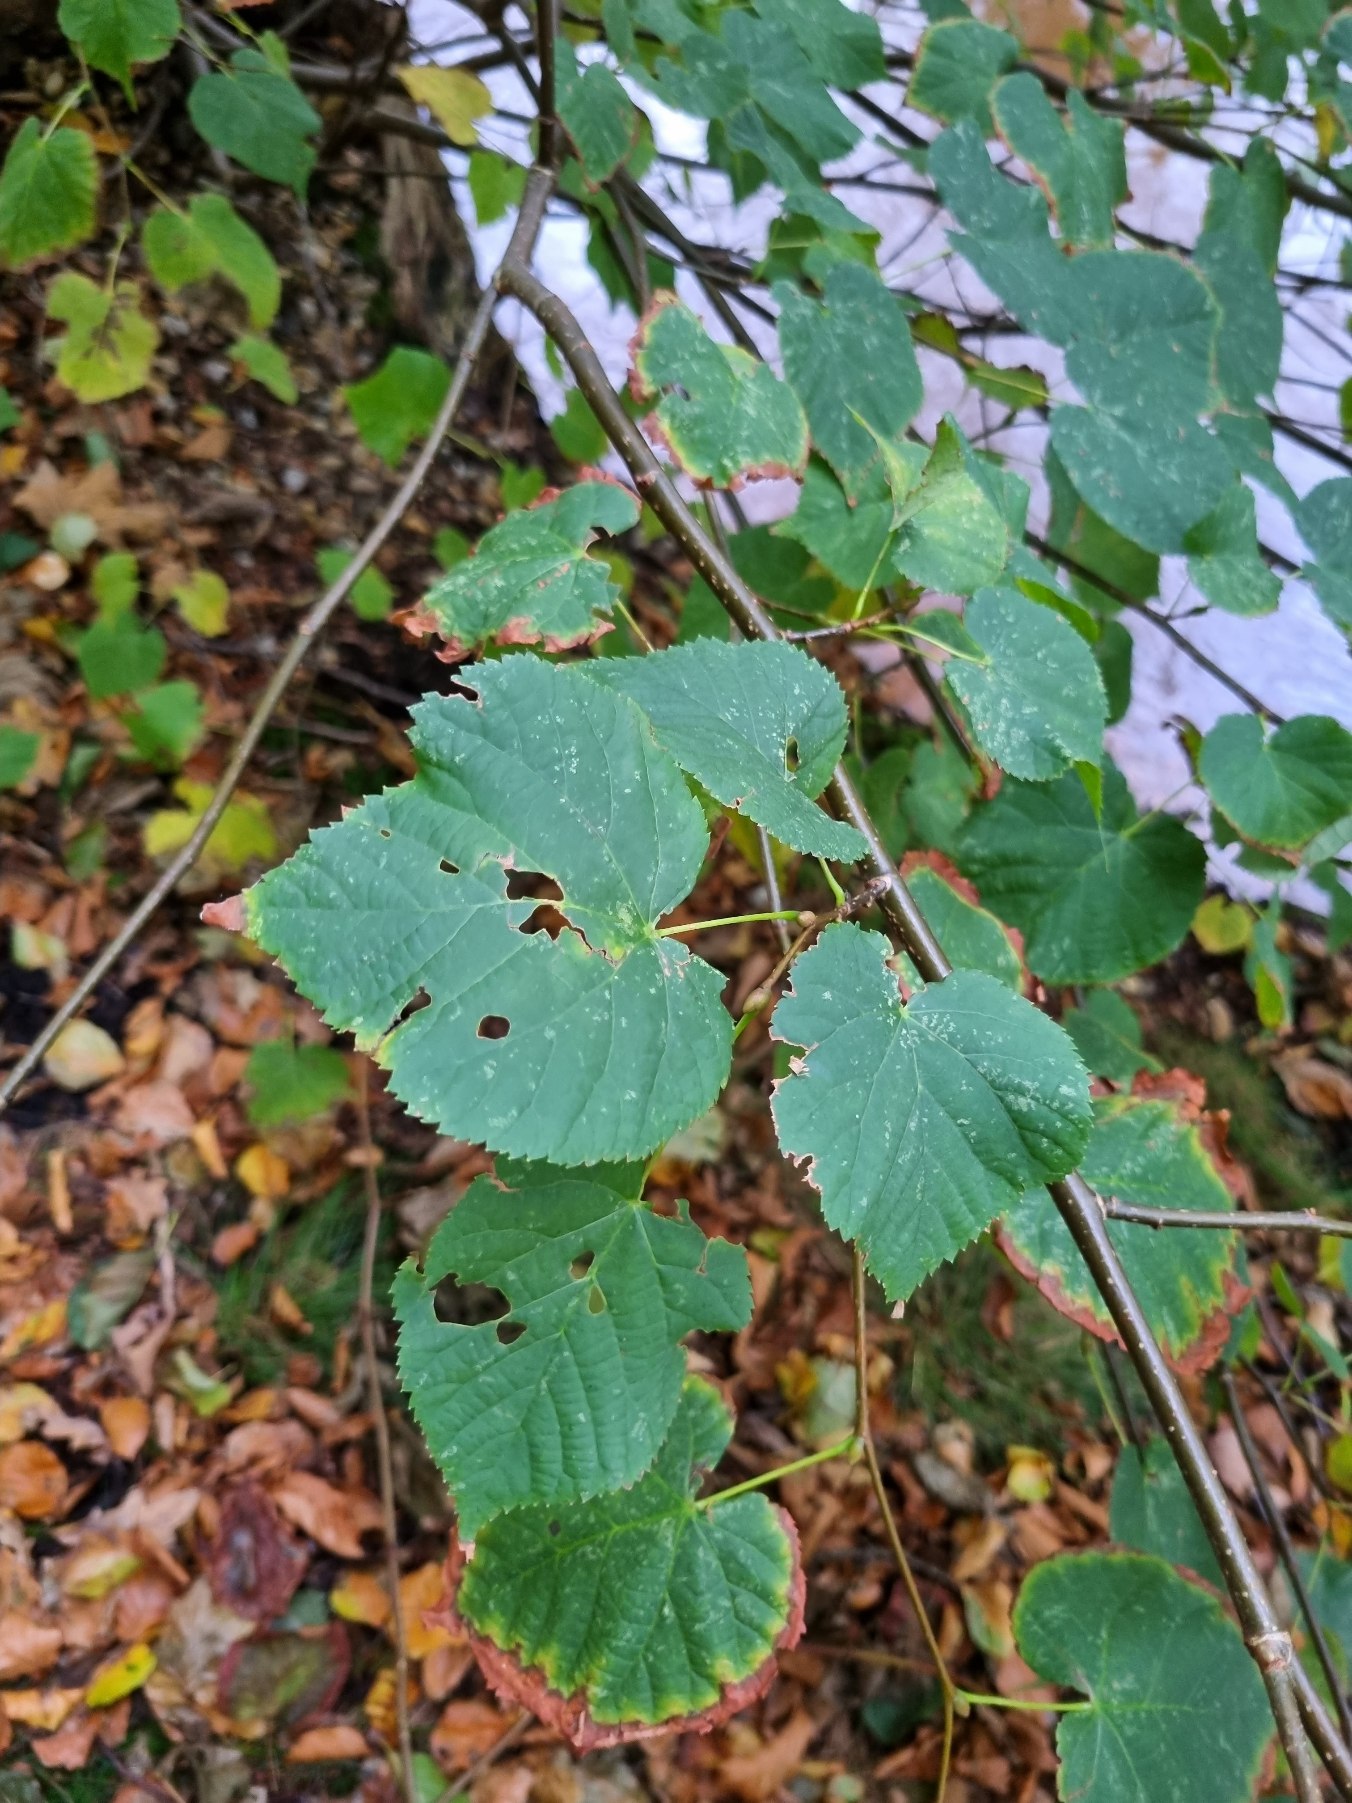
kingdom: Plantae
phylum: Tracheophyta
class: Magnoliopsida
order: Malvales
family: Malvaceae
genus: Tilia
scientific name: Tilia
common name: Lindeslægten
